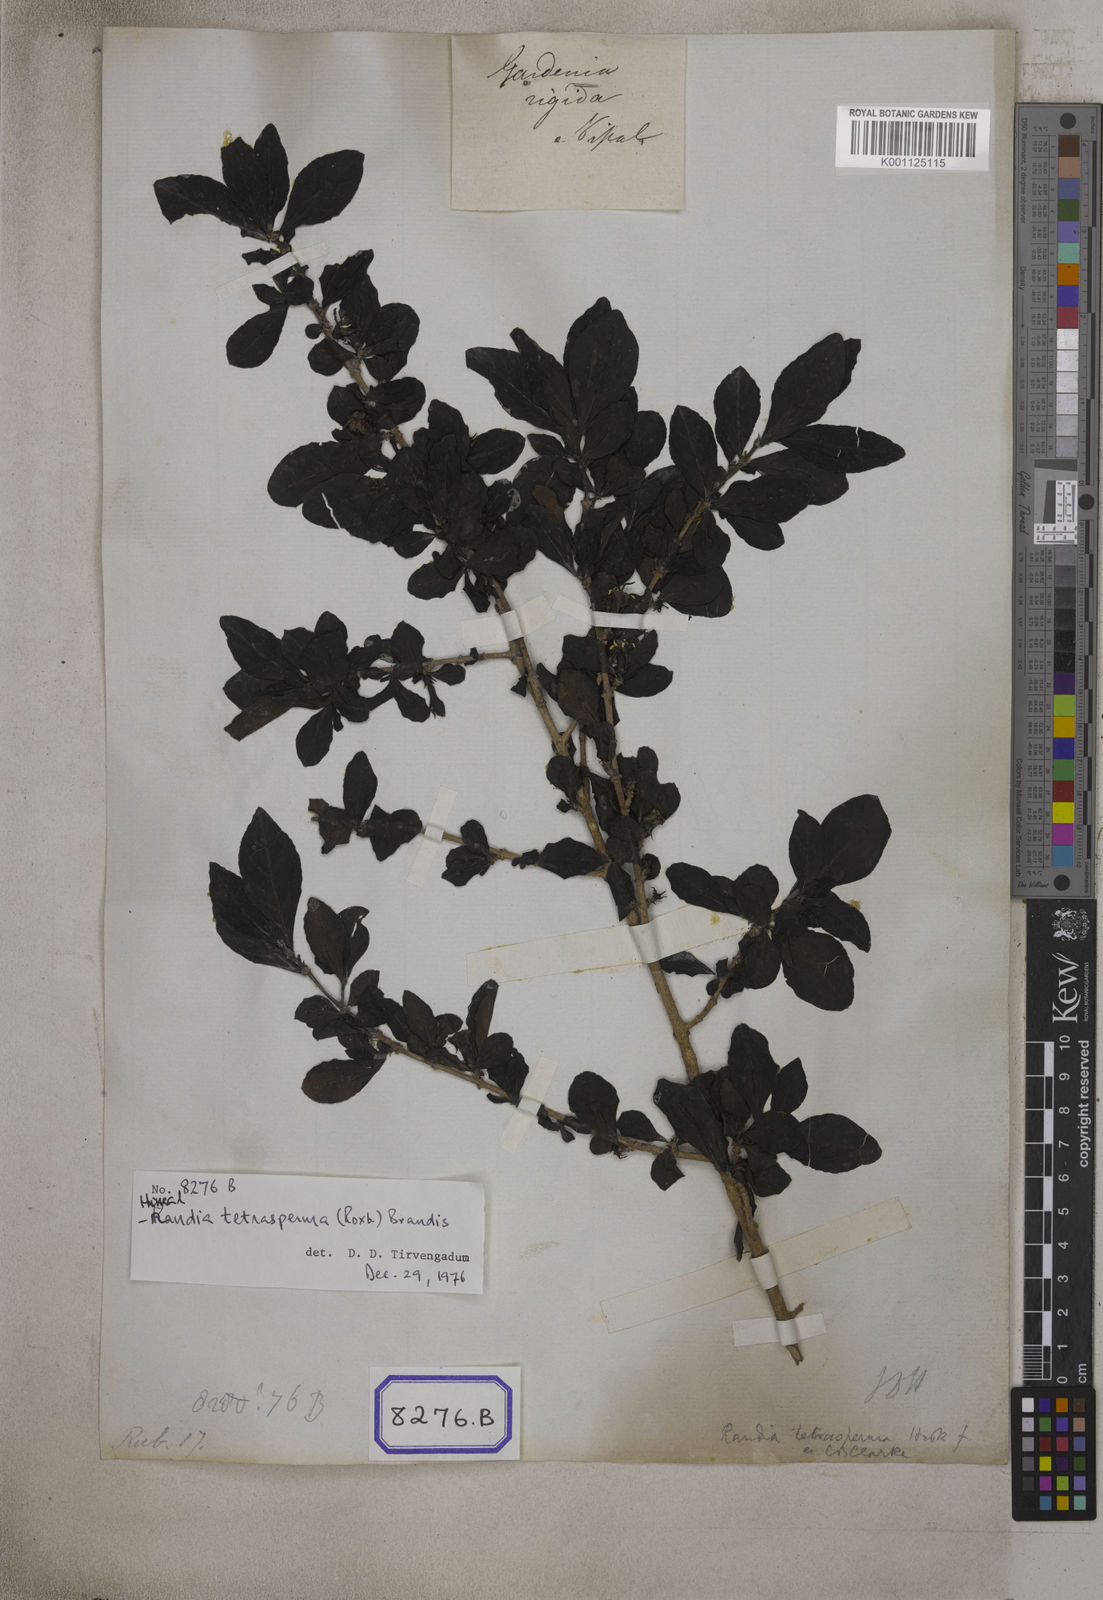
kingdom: Plantae
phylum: Tracheophyta
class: Magnoliopsida
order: Gentianales
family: Rubiaceae
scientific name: Rubiaceae
